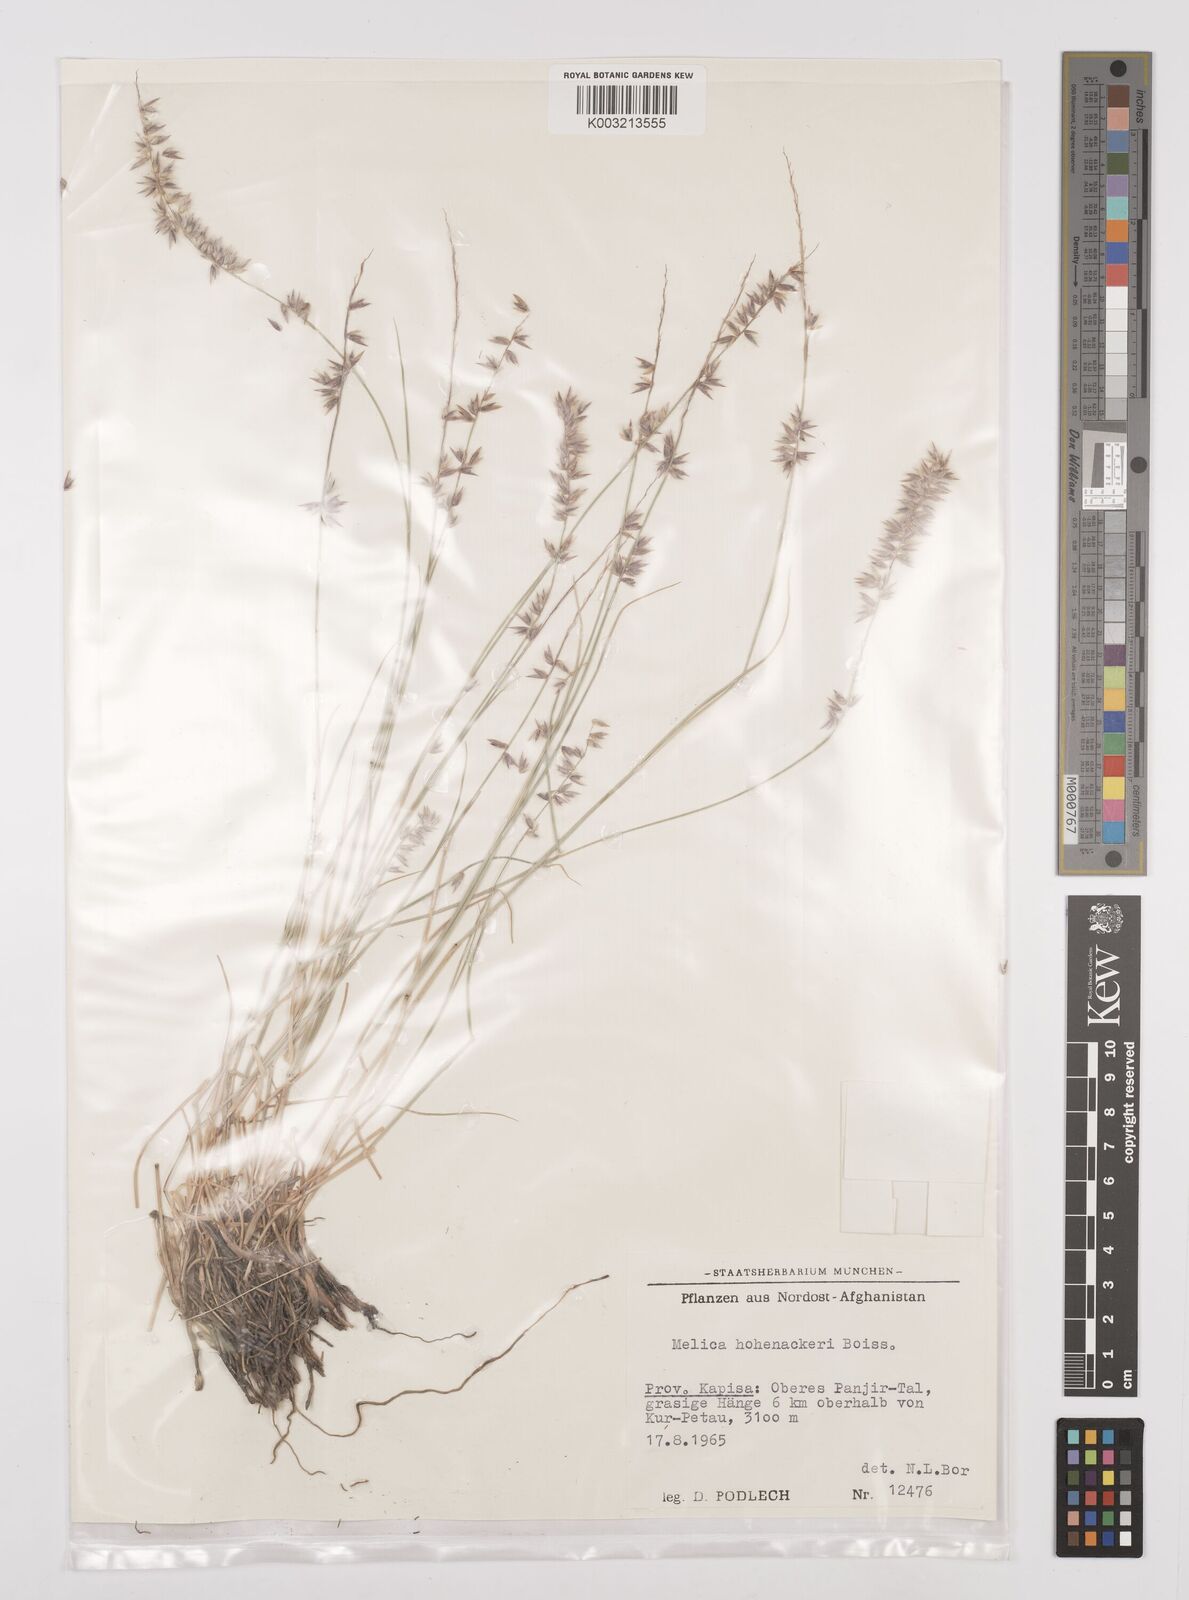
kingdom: Plantae
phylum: Tracheophyta
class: Liliopsida
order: Poales
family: Poaceae
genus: Melica
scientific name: Melica persica
